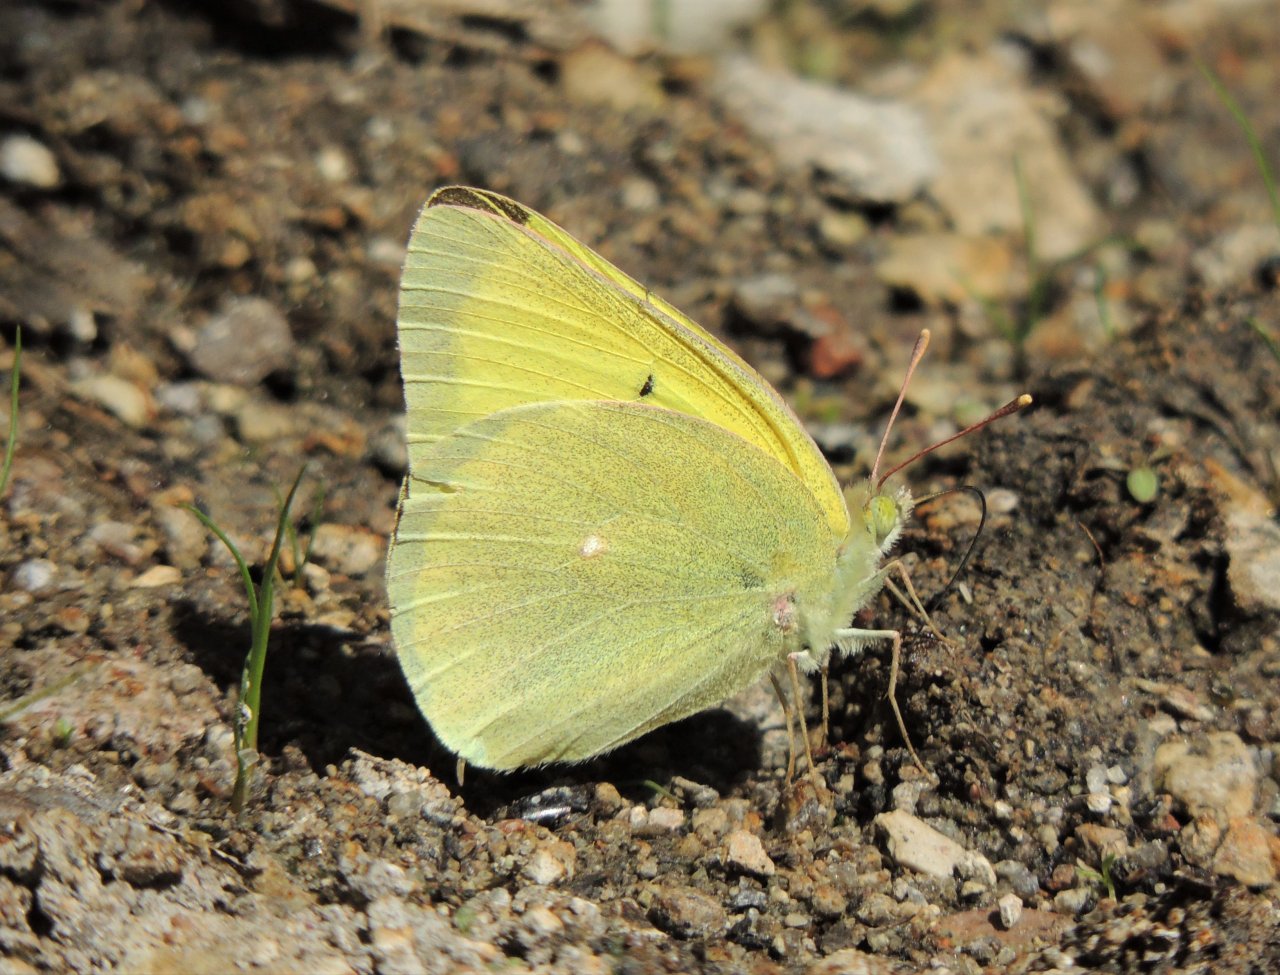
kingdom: Animalia
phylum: Arthropoda
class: Insecta
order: Lepidoptera
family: Pieridae
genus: Colias
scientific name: Colias alexandra
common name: Queen Alexandra's Sulphur
